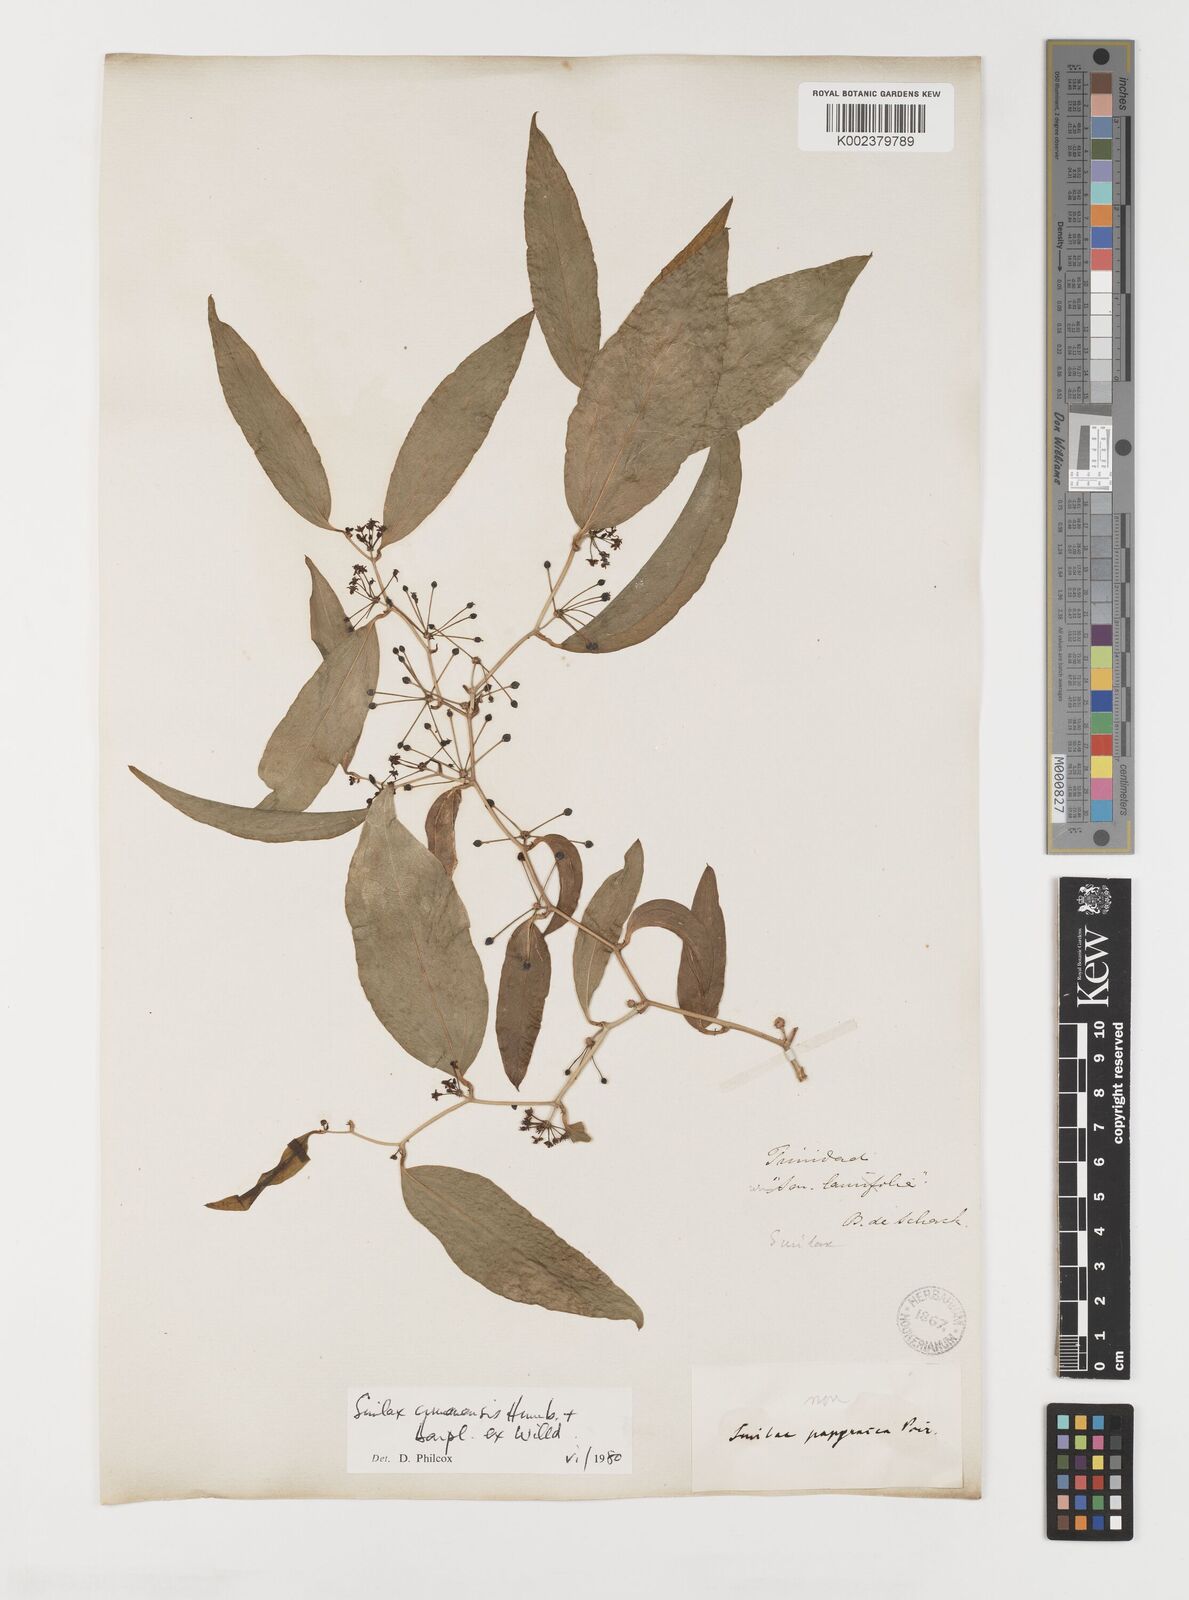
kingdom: Plantae
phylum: Tracheophyta
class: Liliopsida
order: Liliales
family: Smilacaceae
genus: Smilax
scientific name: Smilax oblongata
